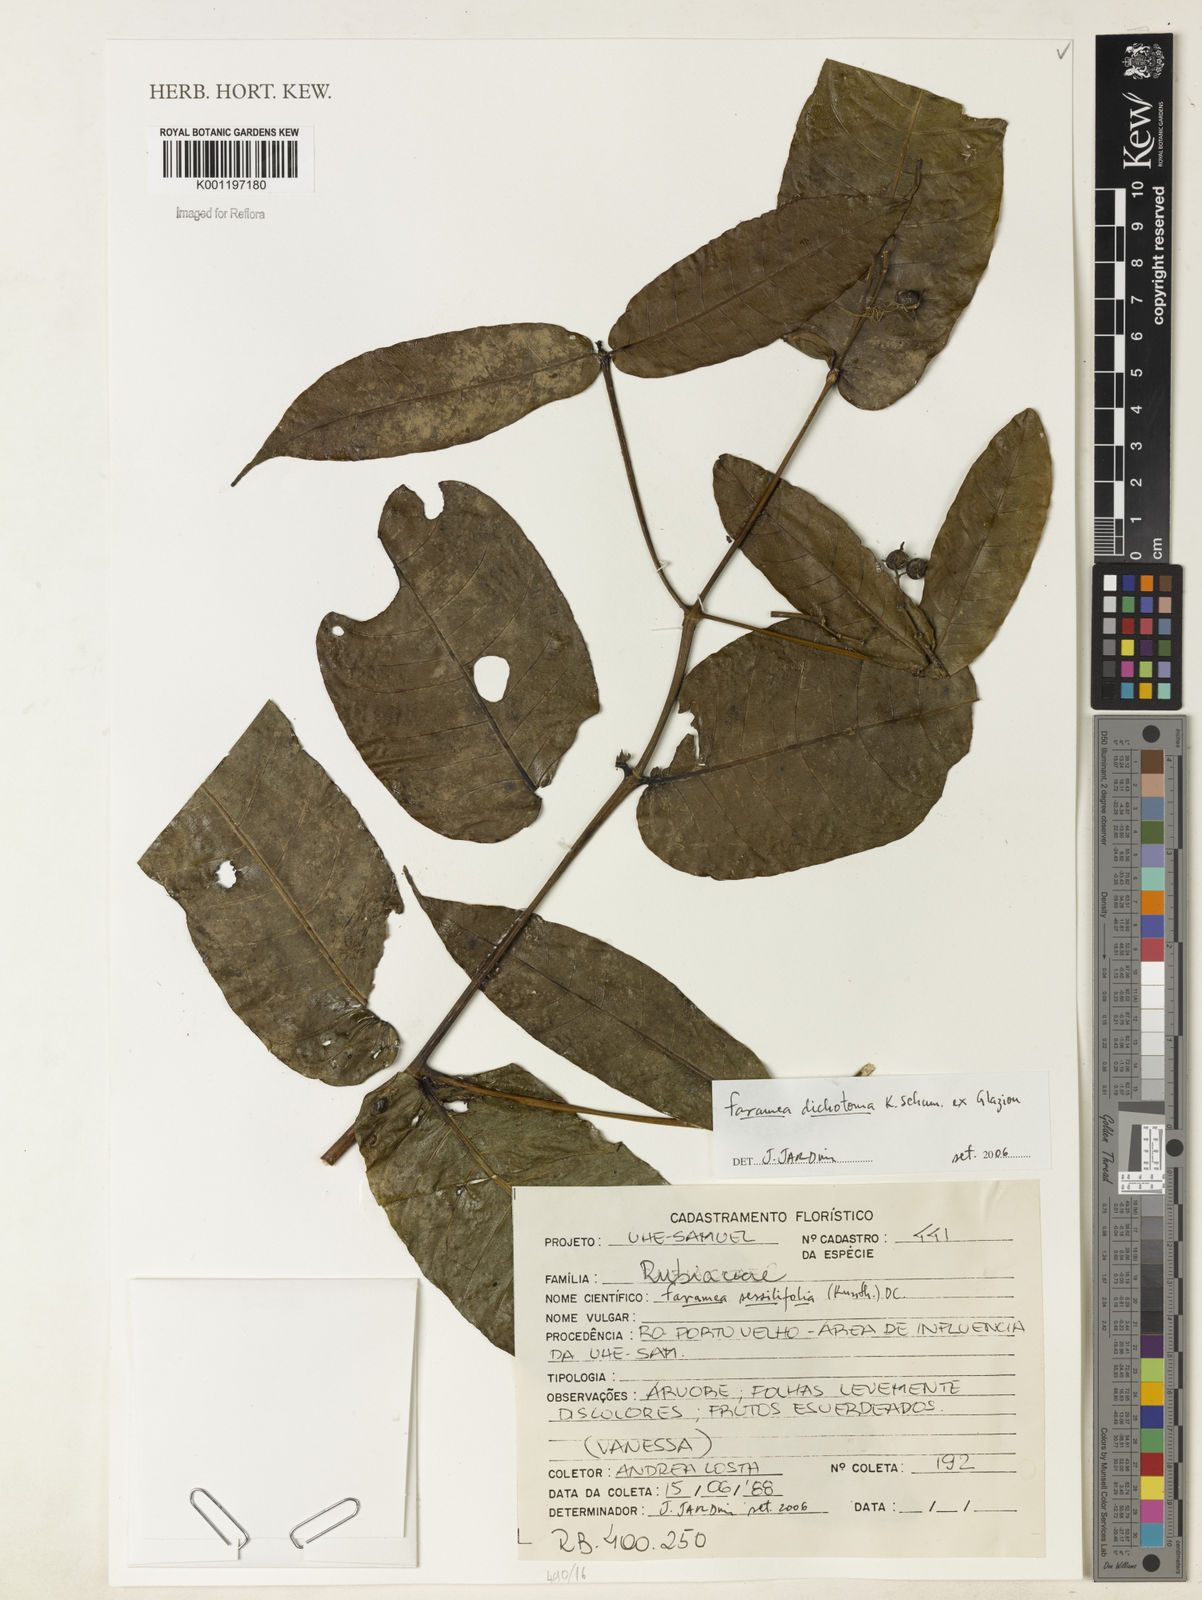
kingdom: Plantae
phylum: Tracheophyta
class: Magnoliopsida
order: Gentianales
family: Rubiaceae
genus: Faramea
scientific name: Faramea dichotoma
